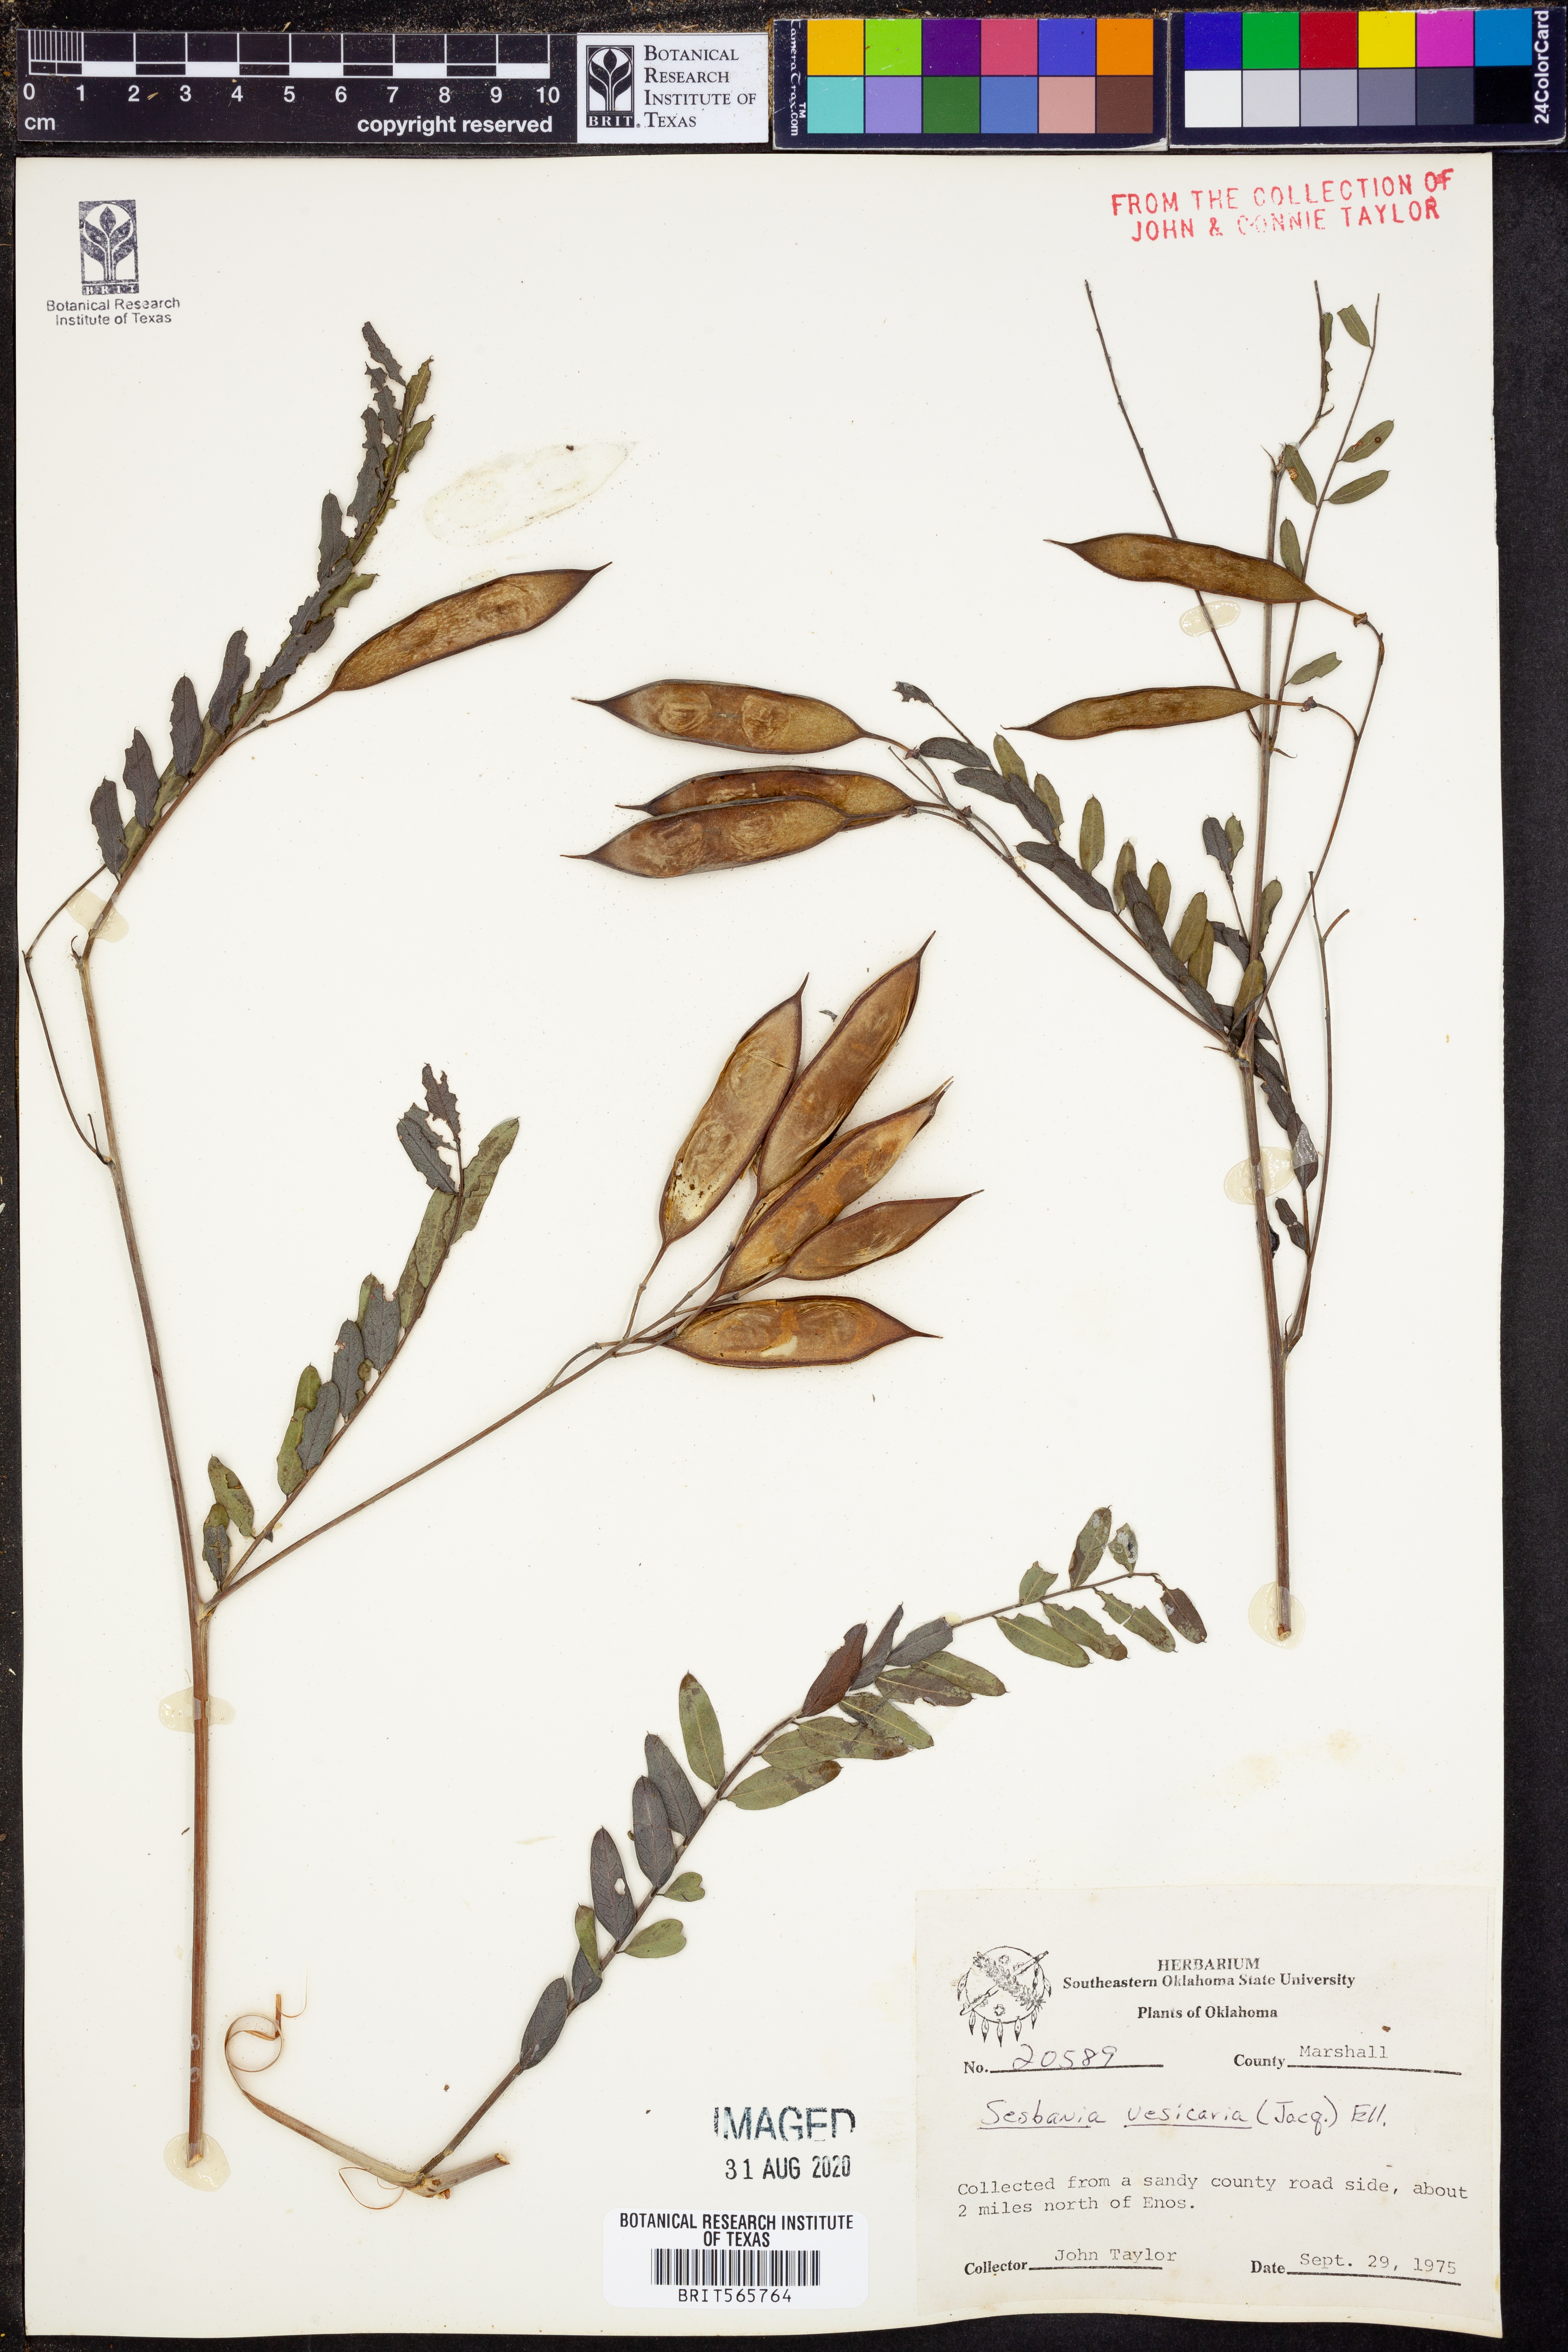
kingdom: Plantae
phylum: Tracheophyta
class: Magnoliopsida
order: Fabales
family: Fabaceae
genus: Sesbania
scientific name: Sesbania vesicaria
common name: Bagpod
